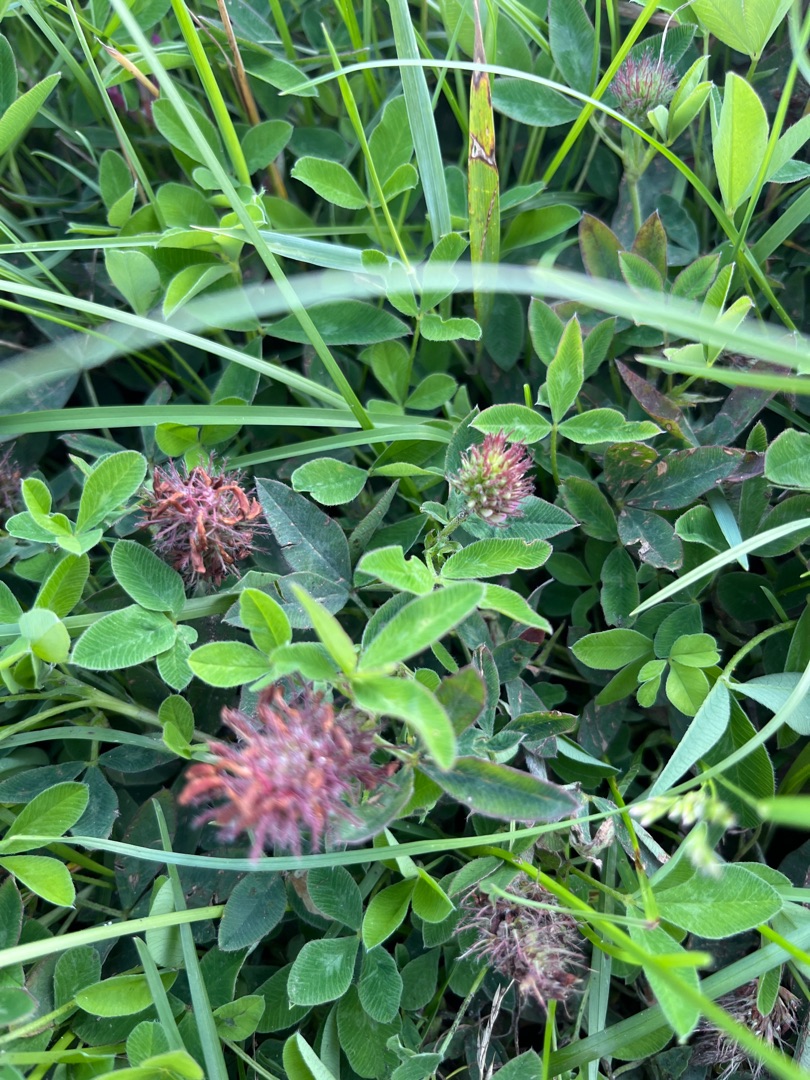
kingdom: Plantae
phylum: Tracheophyta
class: Magnoliopsida
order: Fabales
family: Fabaceae
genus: Trifolium
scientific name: Trifolium medium
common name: Bugtet kløver
